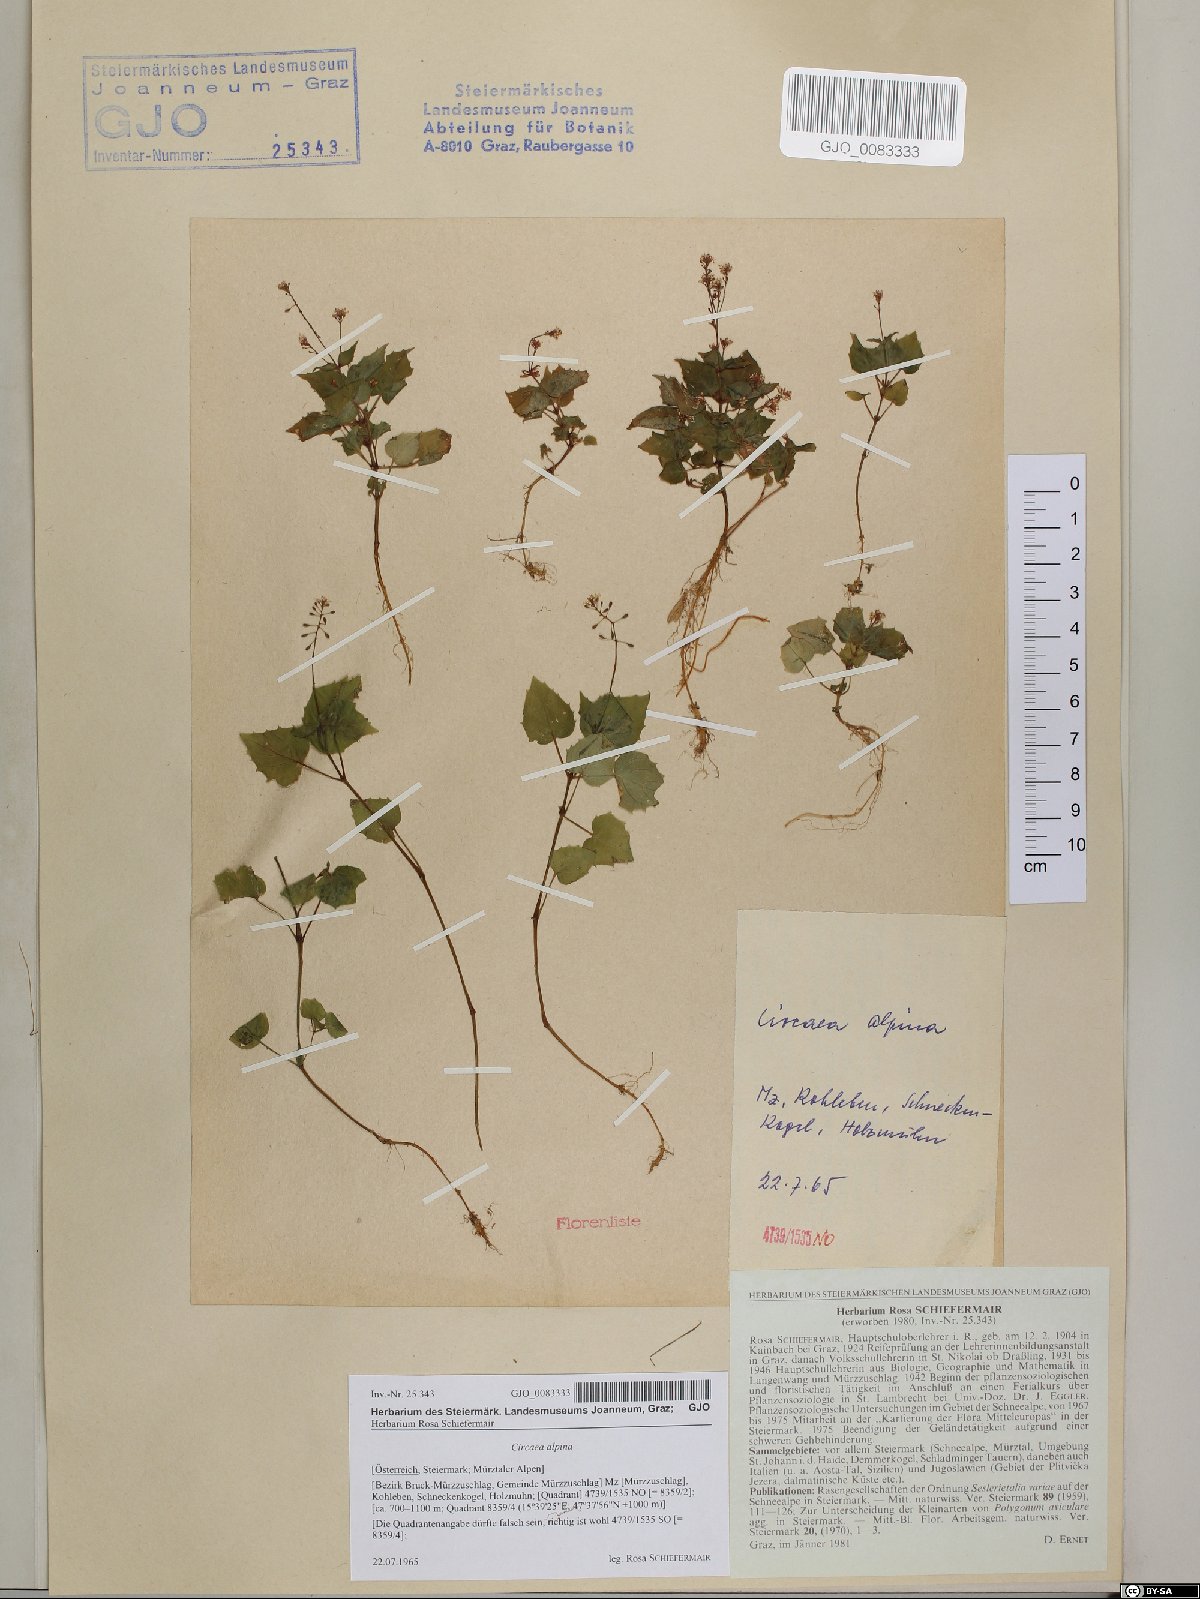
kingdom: Plantae
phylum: Tracheophyta
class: Magnoliopsida
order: Myrtales
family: Onagraceae
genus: Circaea
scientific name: Circaea alpina
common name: Alpine enchanter's-nightshade
